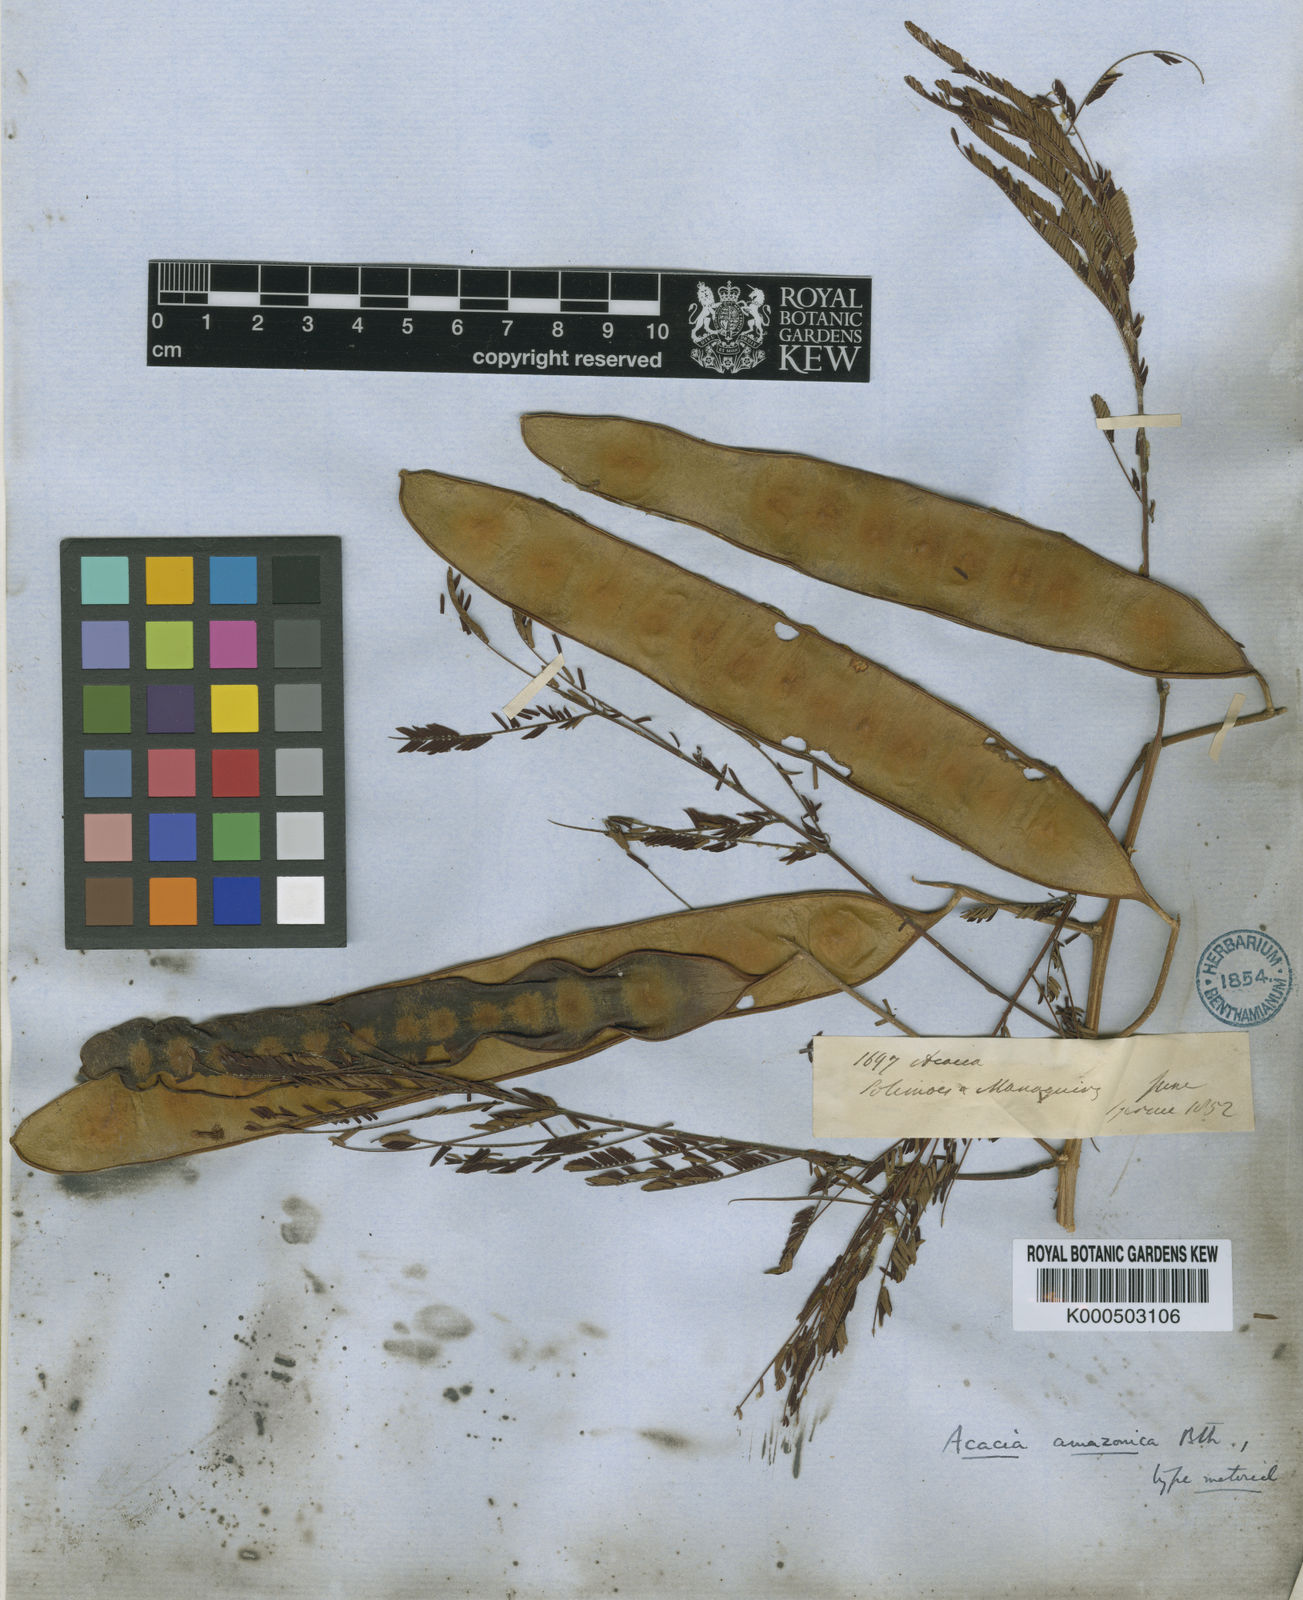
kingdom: Plantae
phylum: Tracheophyta
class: Magnoliopsida
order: Fabales
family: Fabaceae
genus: Senegalia
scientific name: Senegalia amazonica
